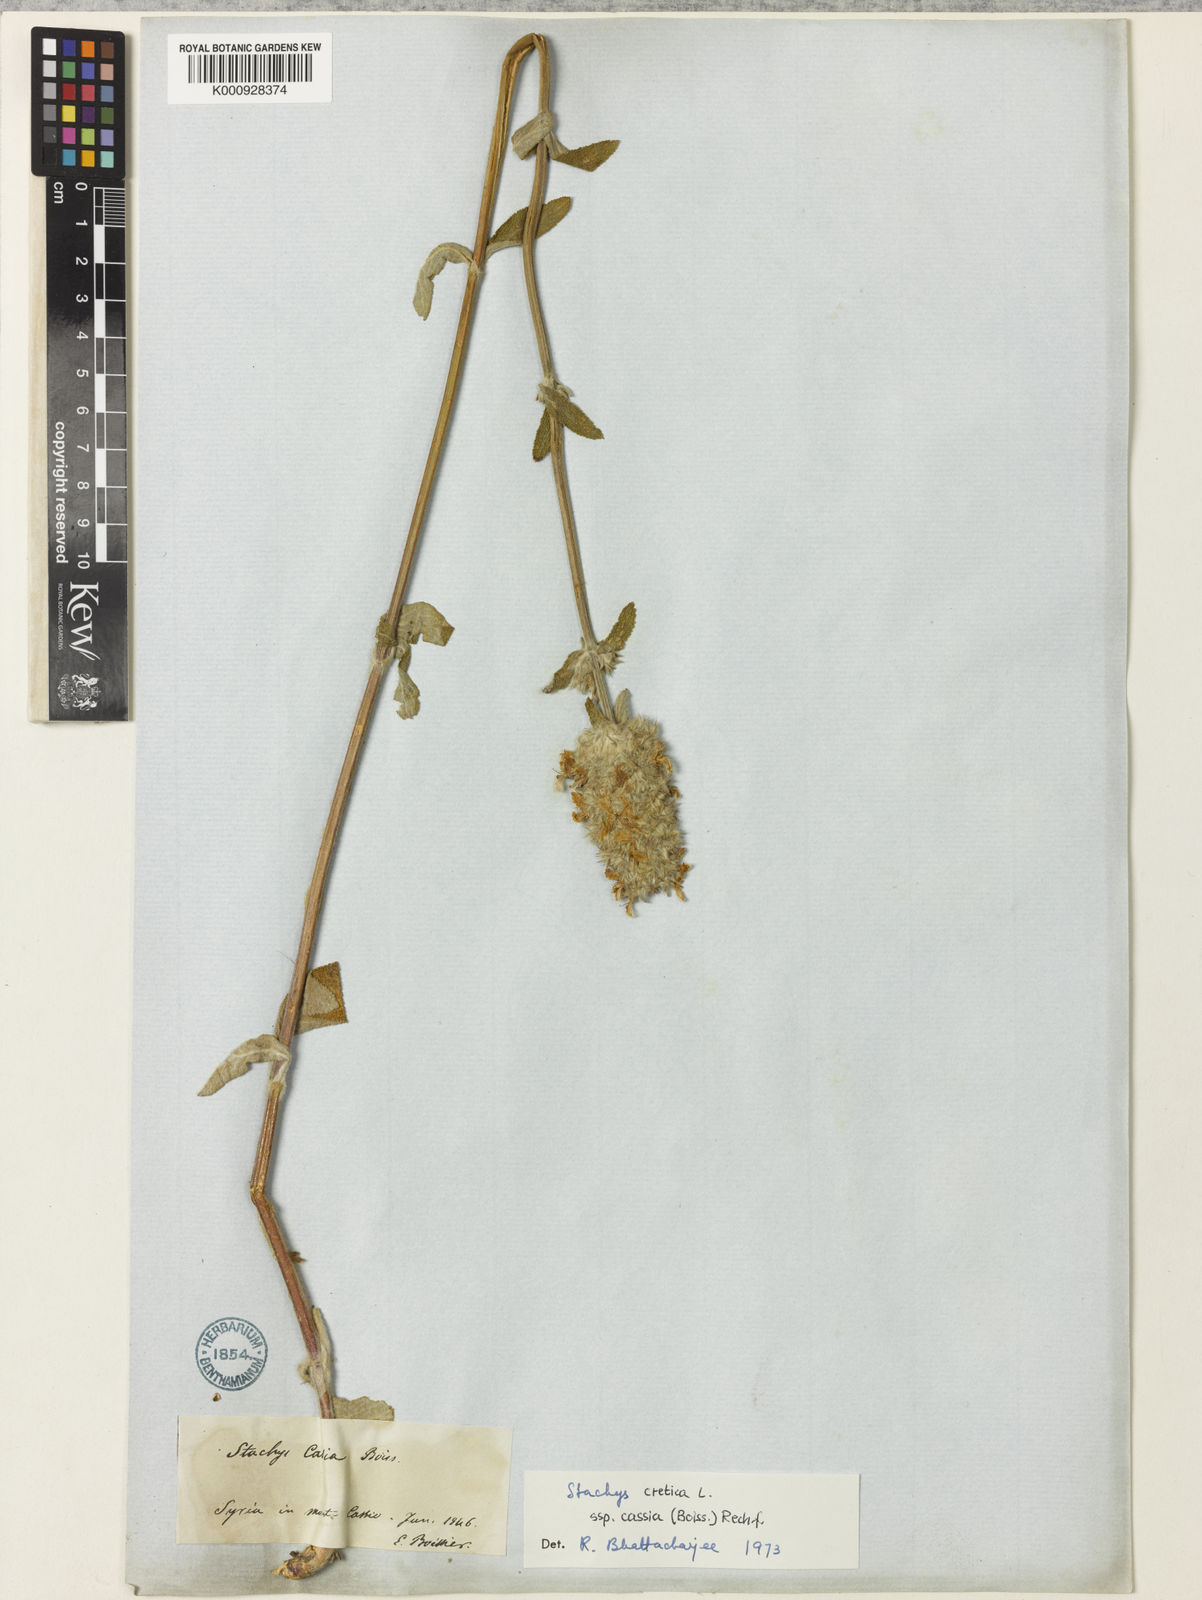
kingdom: Plantae
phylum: Tracheophyta
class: Magnoliopsida
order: Lamiales
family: Lamiaceae
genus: Stachys
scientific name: Stachys cretica
